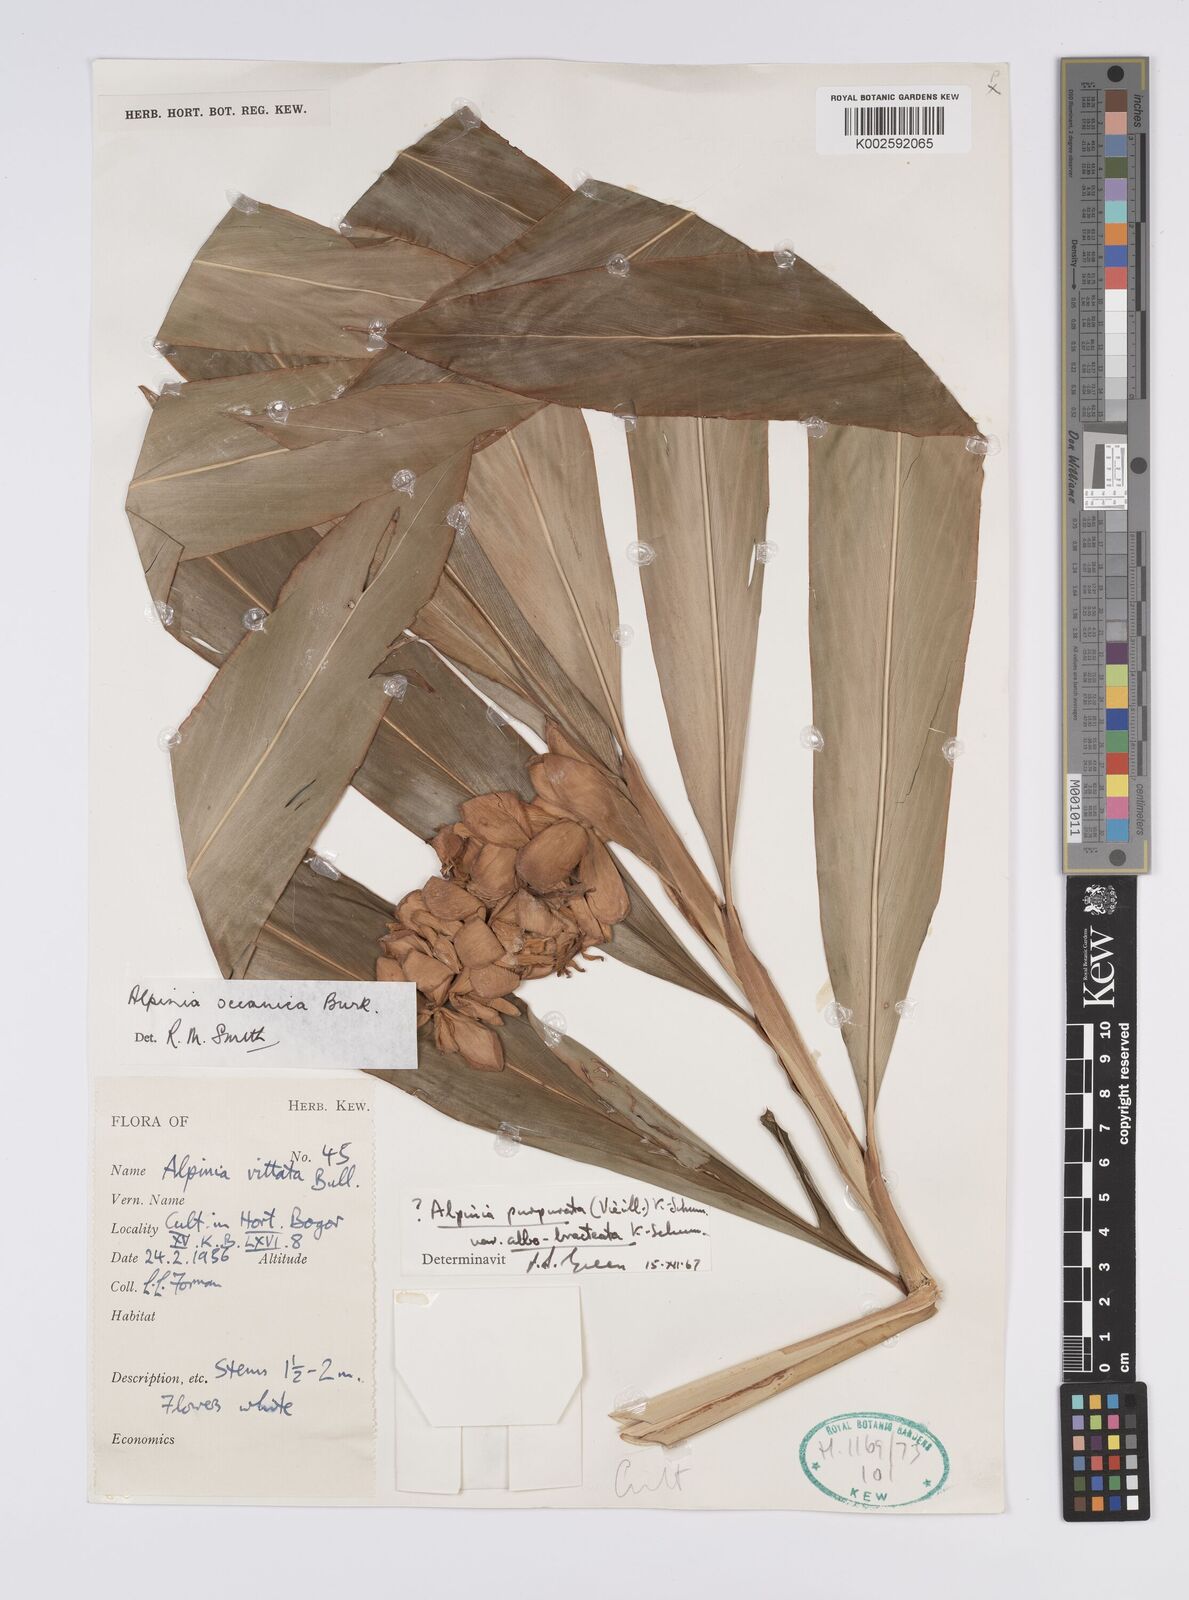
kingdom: Plantae
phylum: Tracheophyta
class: Liliopsida
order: Zingiberales
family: Zingiberaceae
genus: Alpinia
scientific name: Alpinia oceanica
